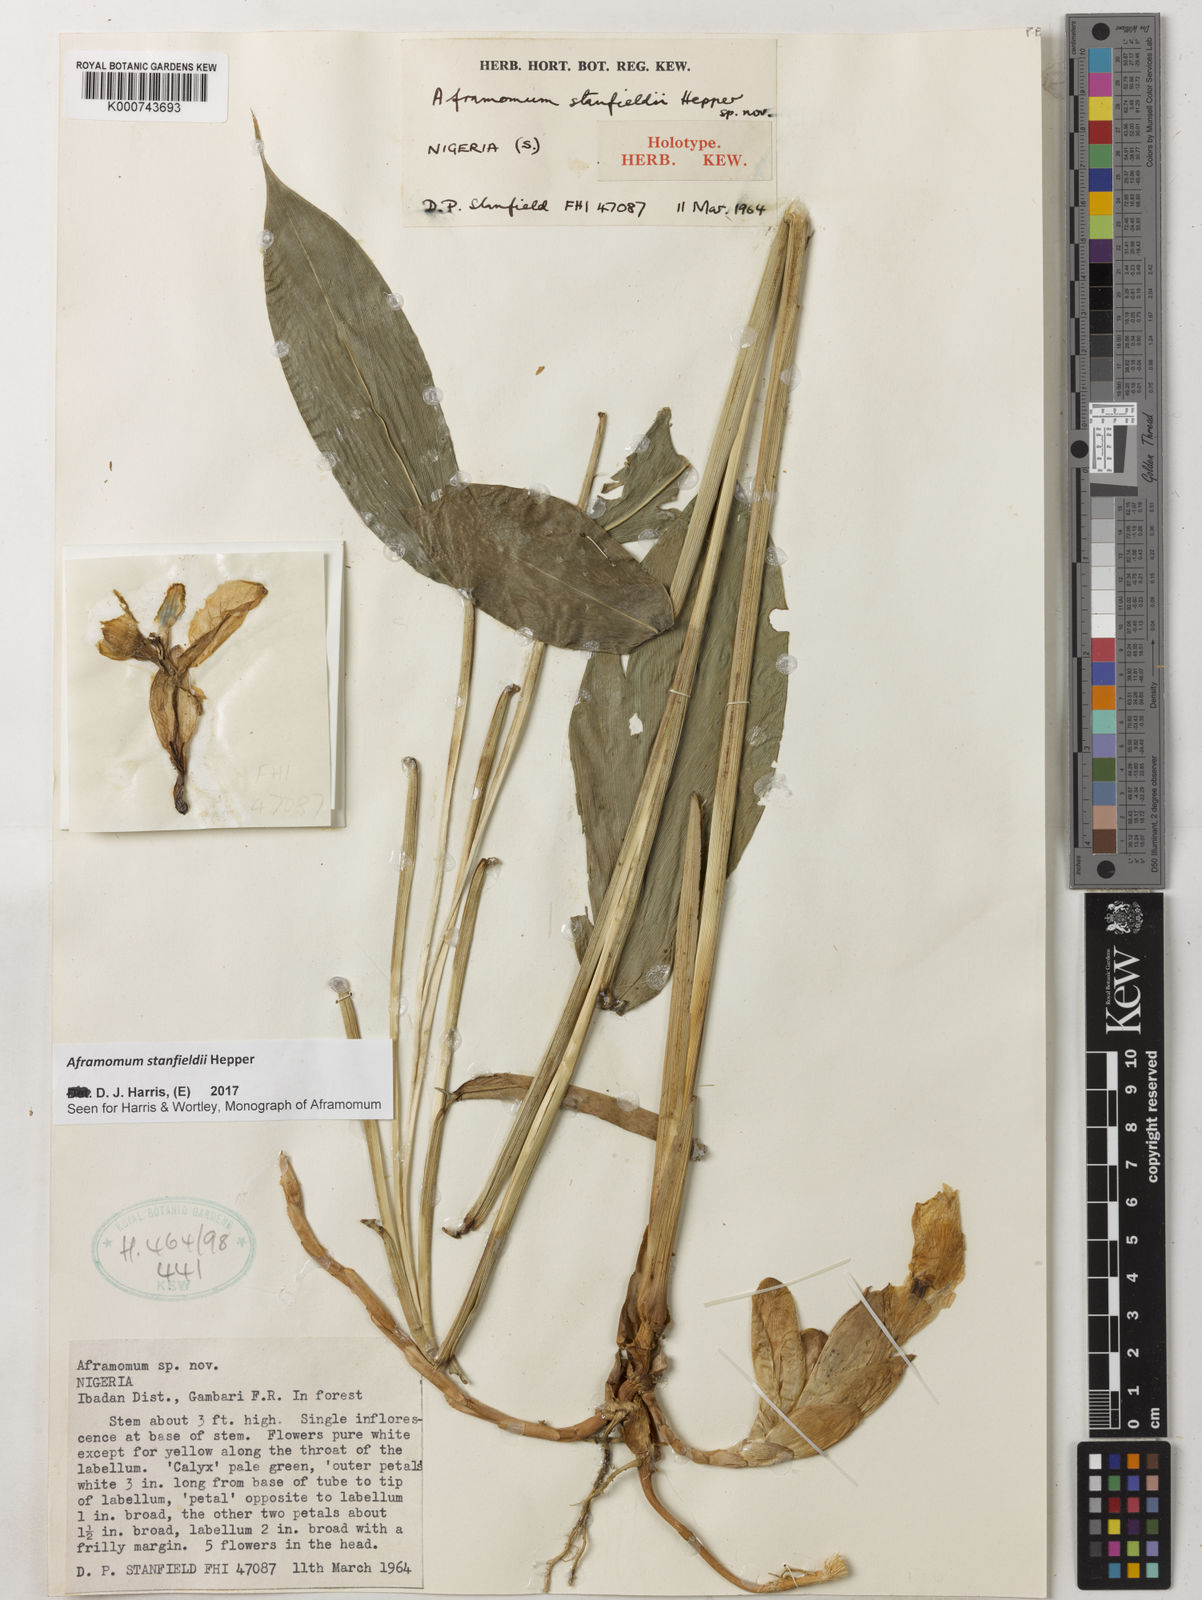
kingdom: Plantae
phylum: Tracheophyta
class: Liliopsida
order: Zingiberales
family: Zingiberaceae
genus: Aframomum
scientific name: Aframomum stanfieldii
